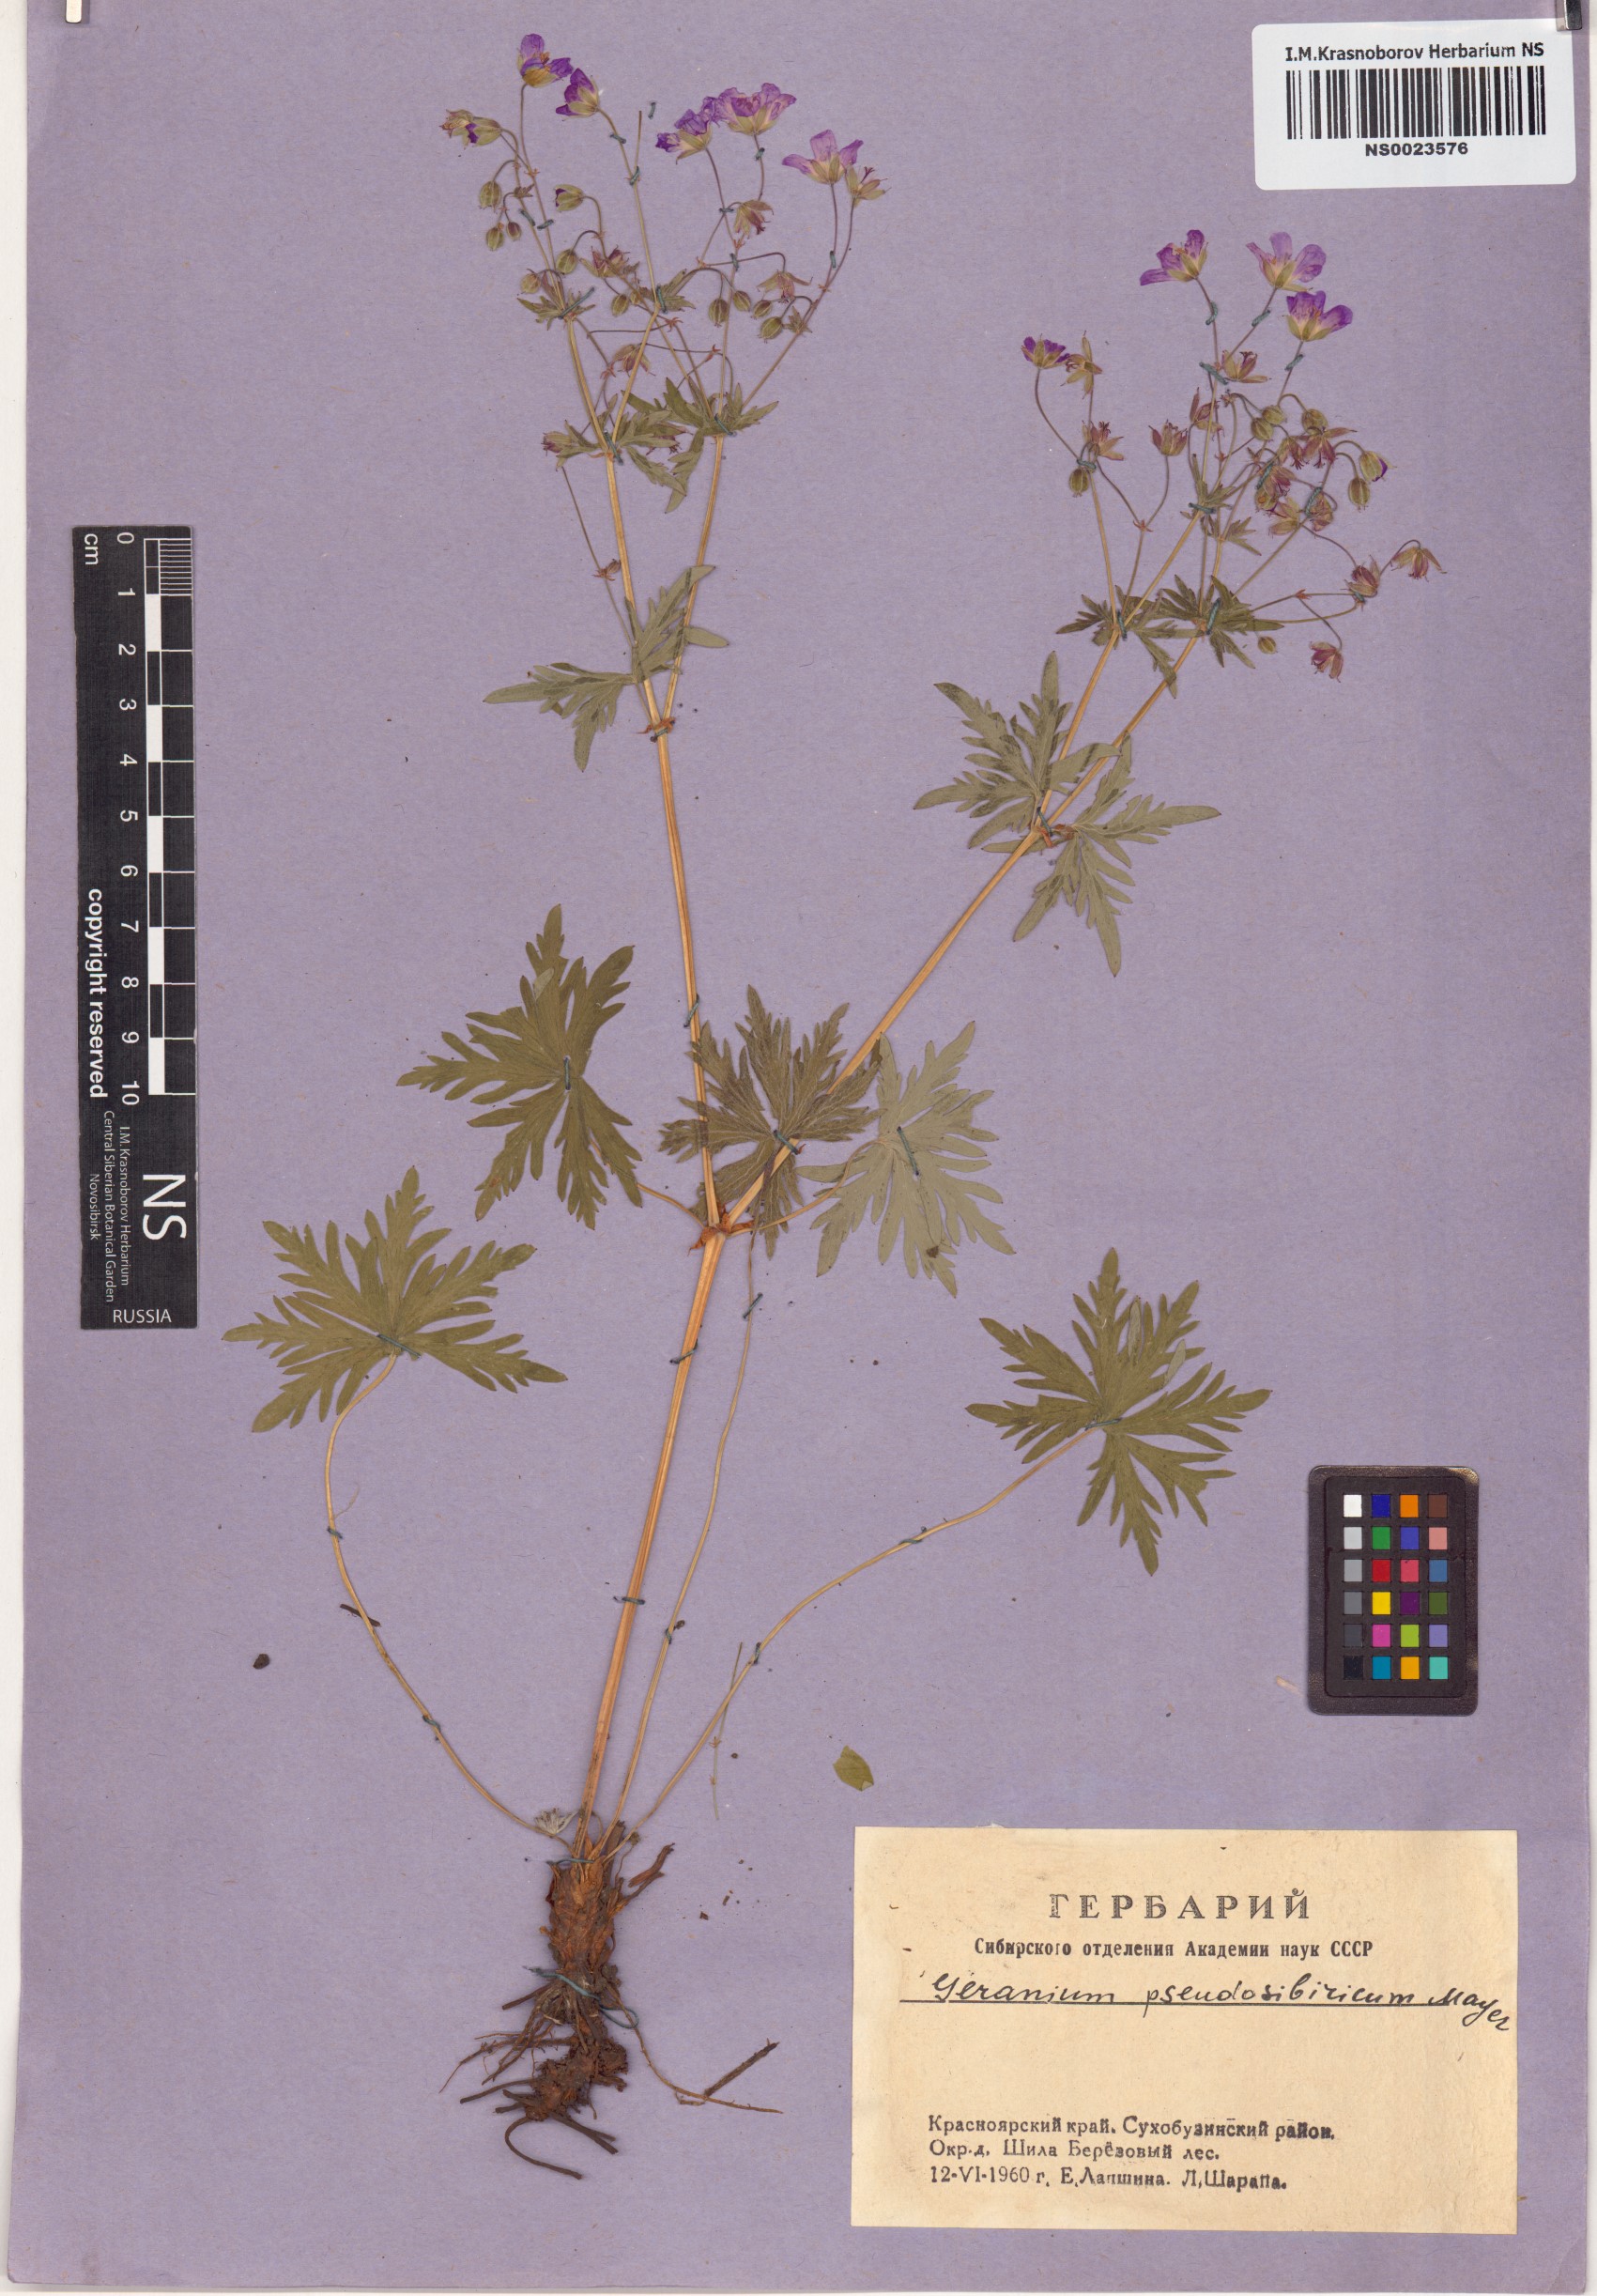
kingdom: Plantae
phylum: Tracheophyta
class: Magnoliopsida
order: Geraniales
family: Geraniaceae
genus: Geranium
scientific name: Geranium pseudosibiricum
